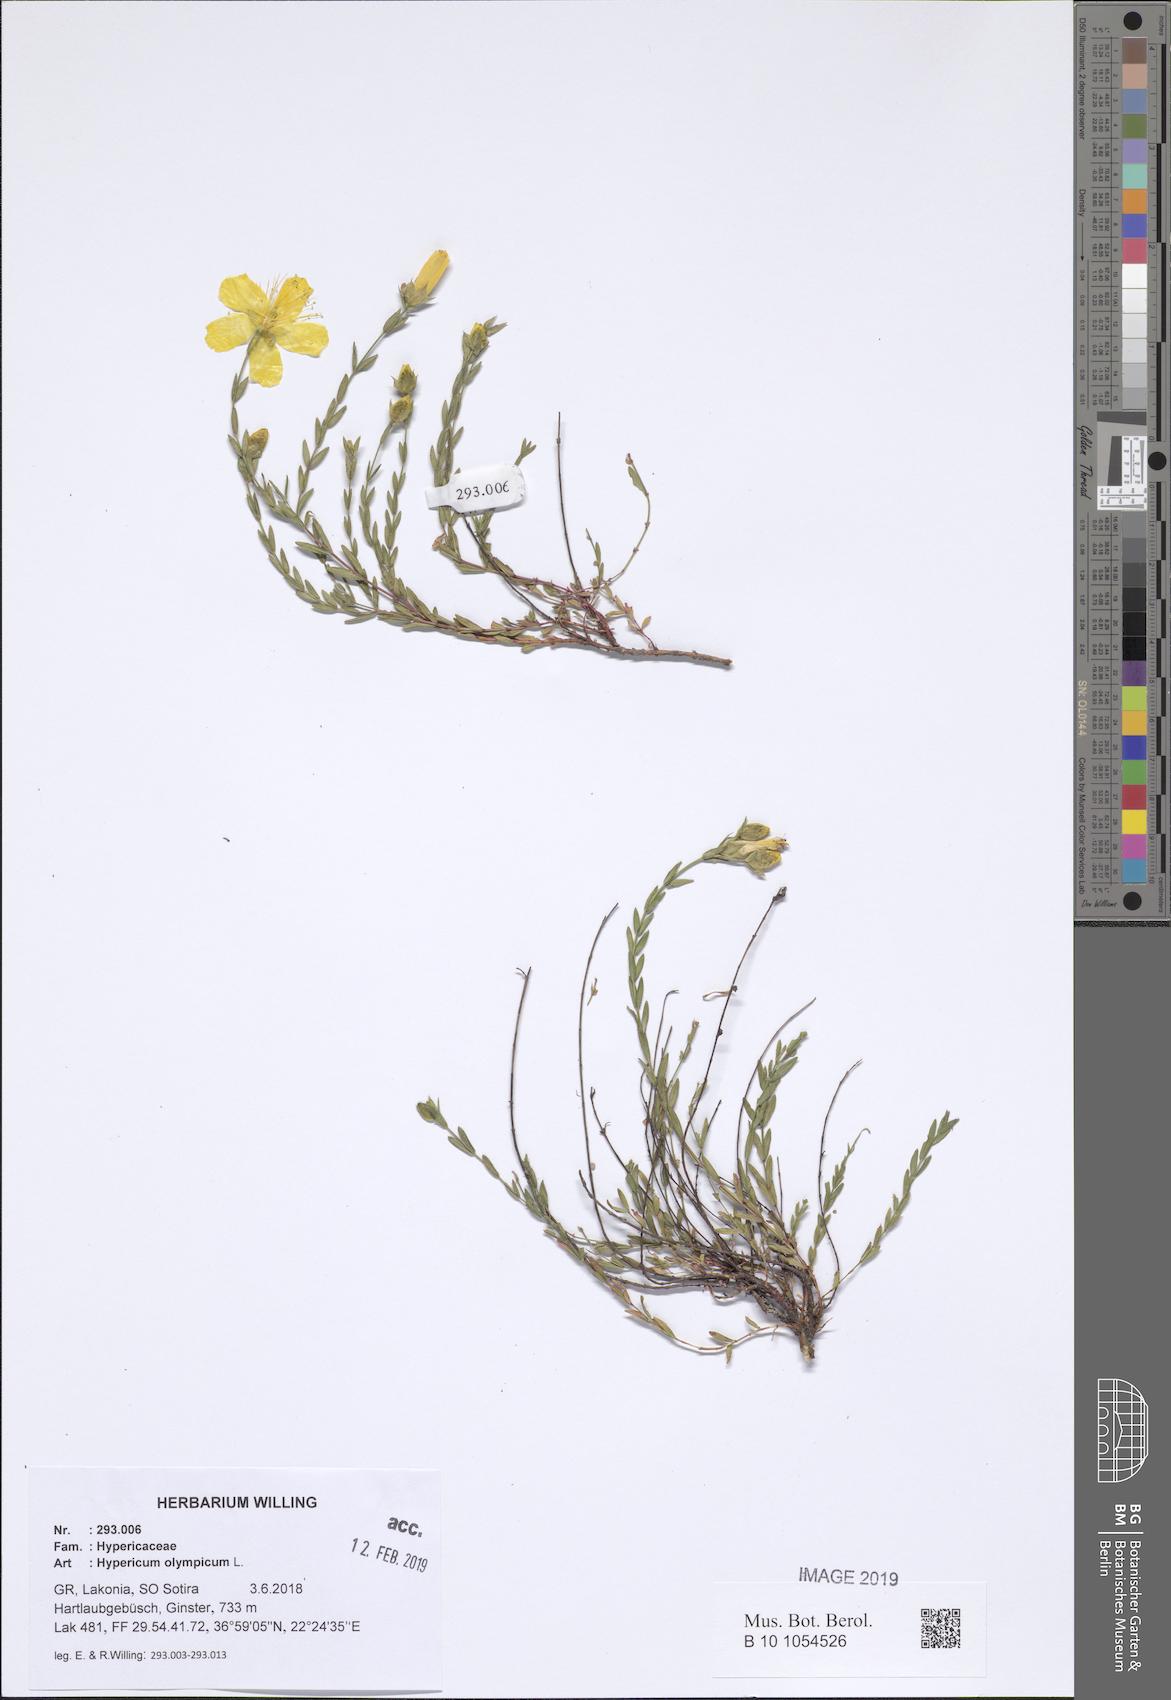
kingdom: Plantae
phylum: Tracheophyta
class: Magnoliopsida
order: Malpighiales
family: Hypericaceae
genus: Hypericum
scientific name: Hypericum olympicum
